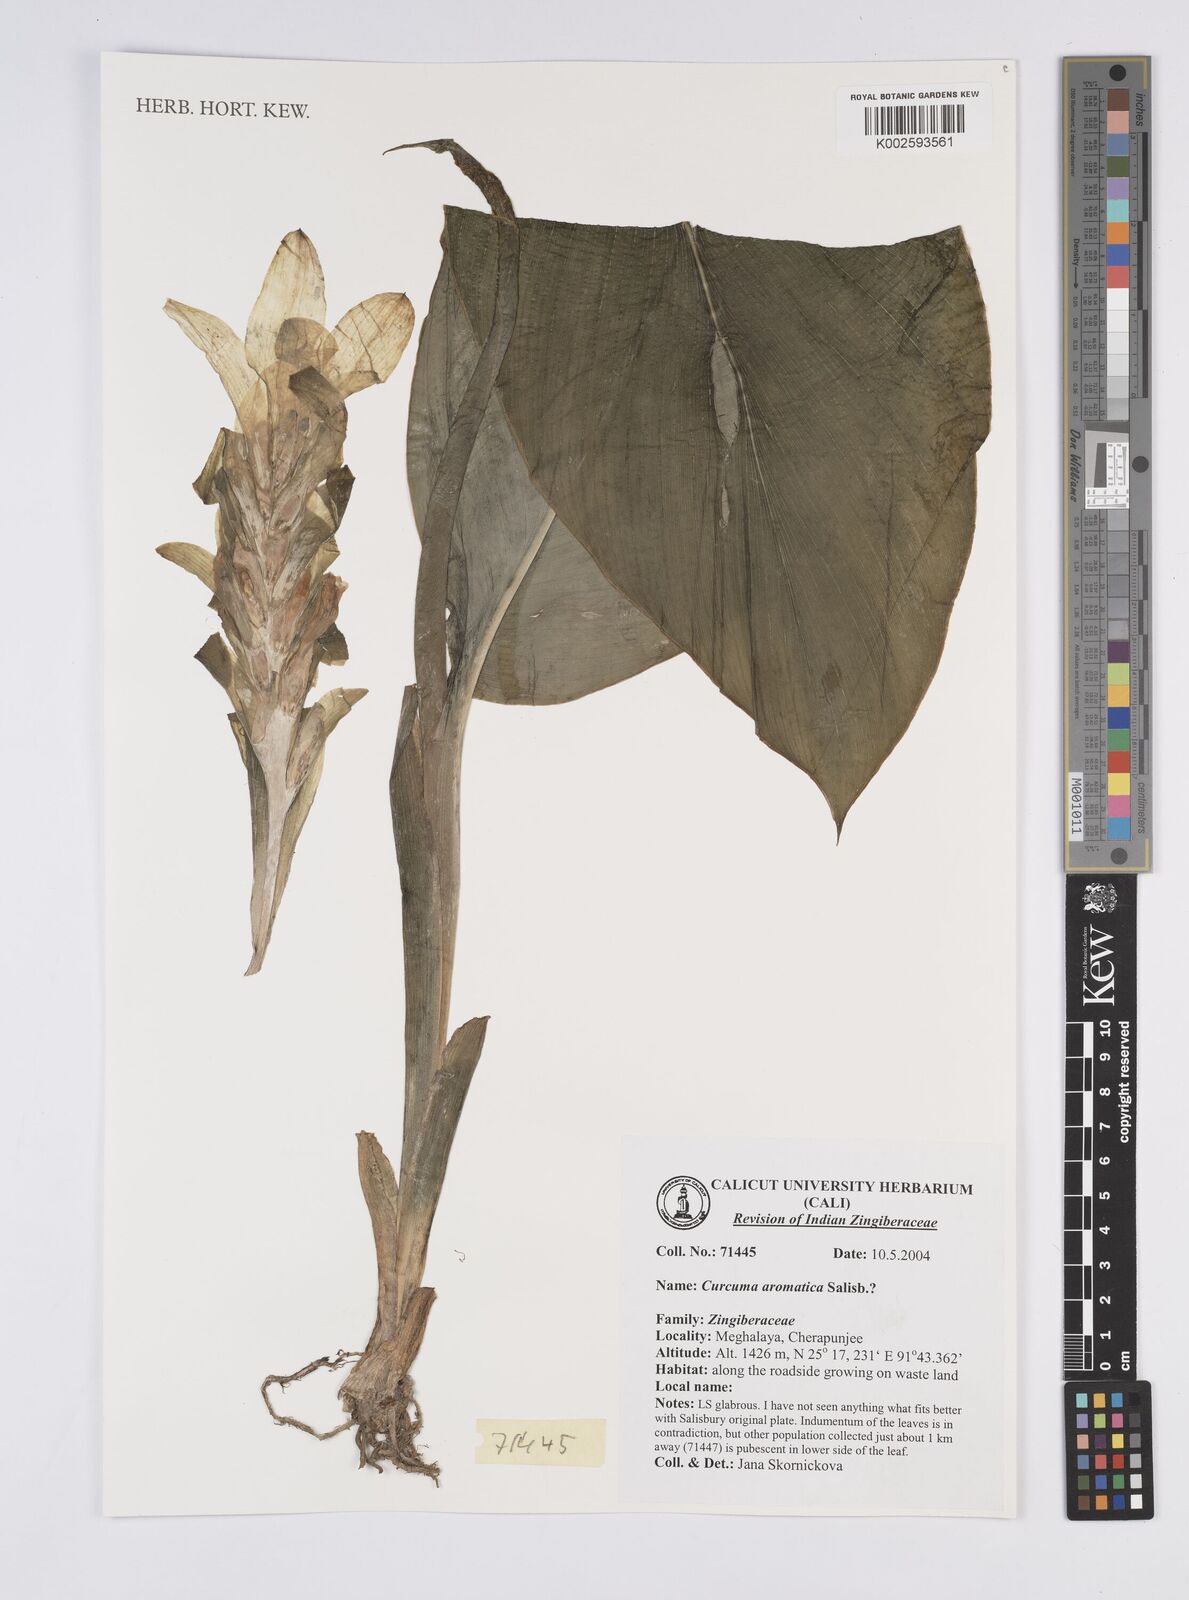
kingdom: Plantae
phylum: Tracheophyta
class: Liliopsida
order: Zingiberales
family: Zingiberaceae
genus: Curcuma
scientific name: Curcuma aromatica
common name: Wild turmeric
